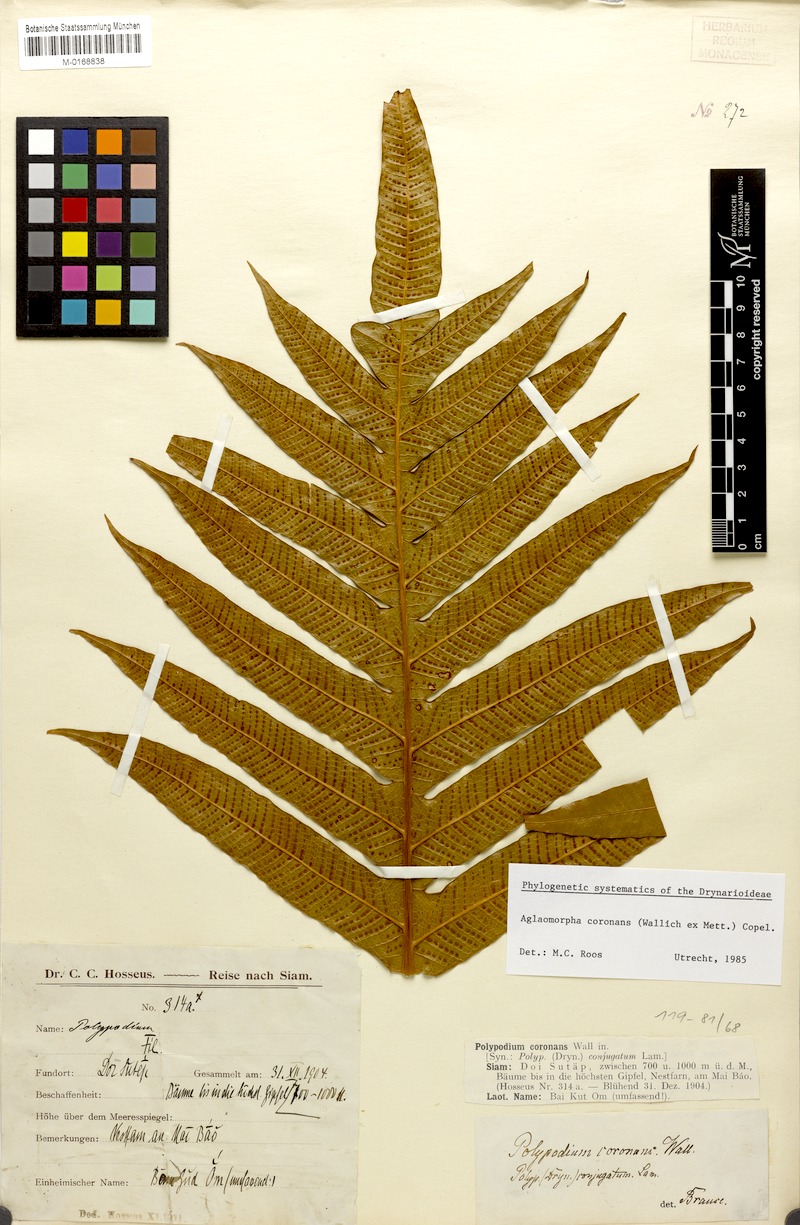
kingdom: Plantae
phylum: Tracheophyta
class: Polypodiopsida
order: Polypodiales
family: Polypodiaceae
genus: Drynaria
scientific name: Drynaria coronans
